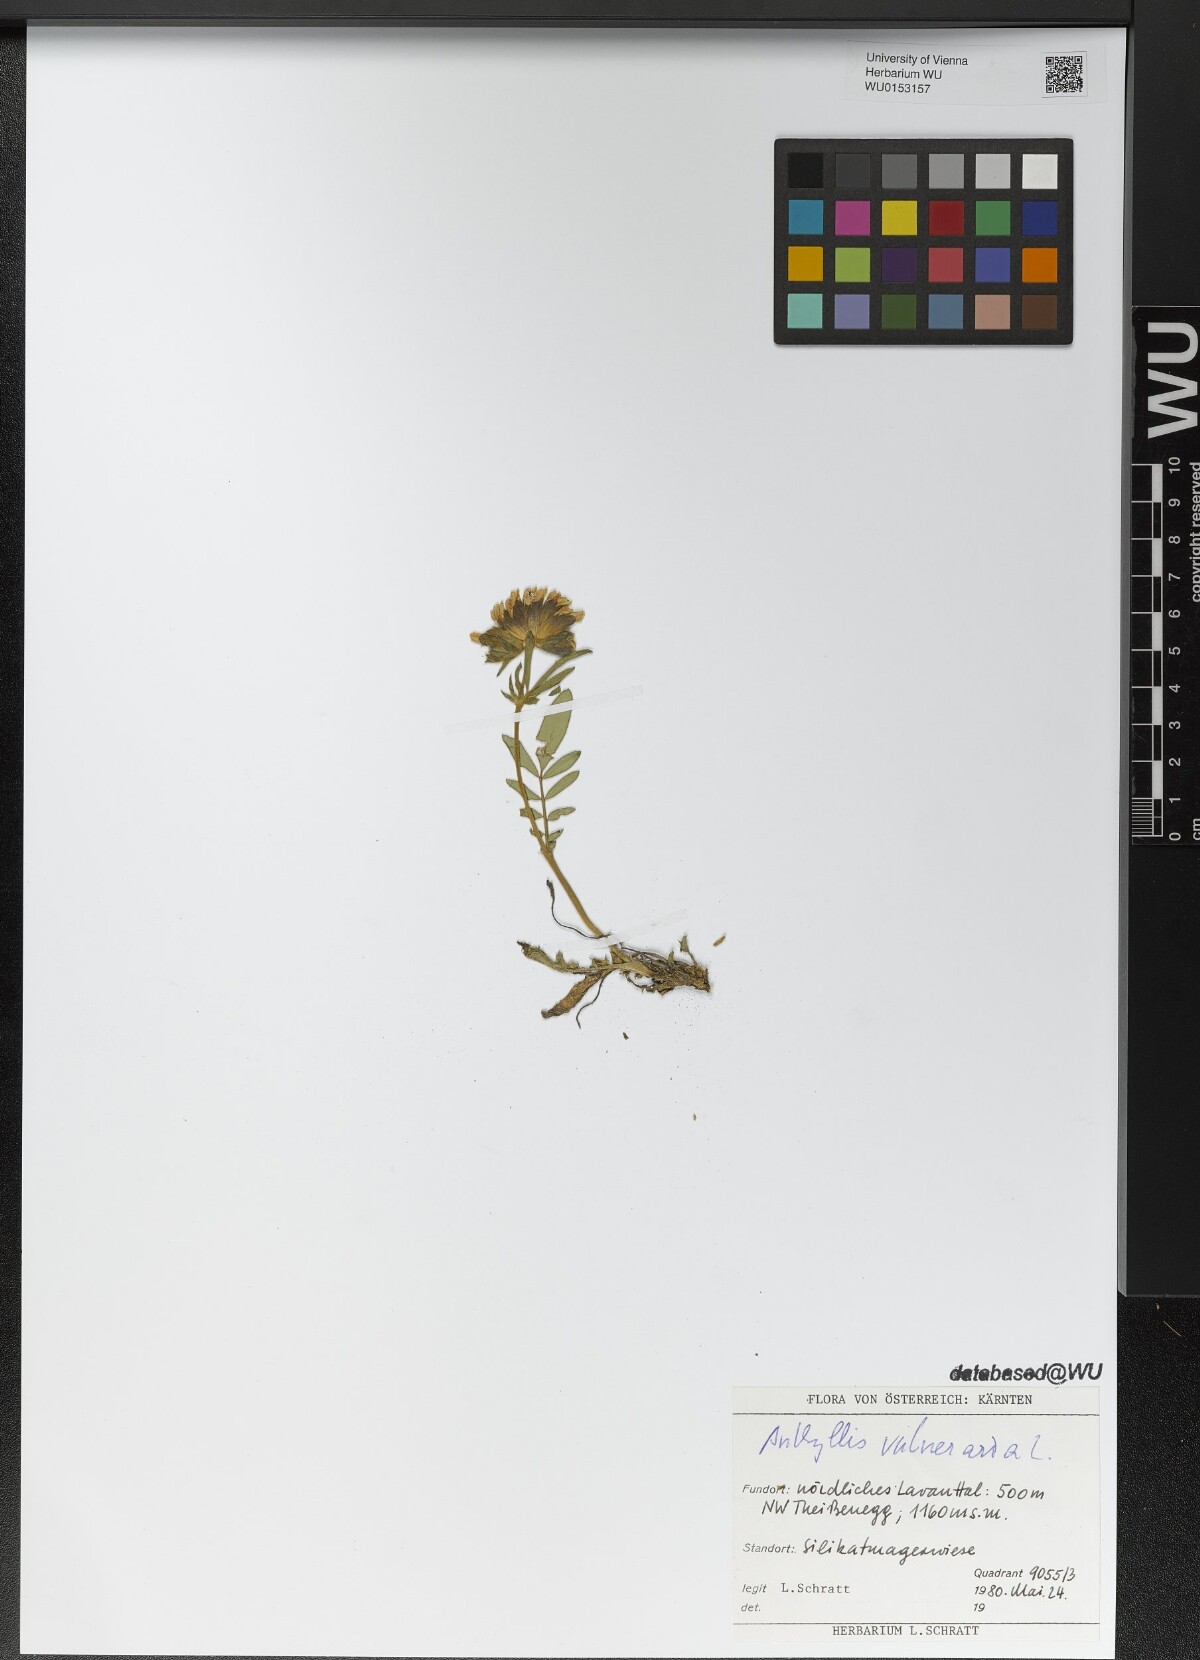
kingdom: Plantae
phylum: Tracheophyta
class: Magnoliopsida
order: Fabales
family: Fabaceae
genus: Anthyllis
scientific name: Anthyllis vulneraria
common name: Kidney vetch
